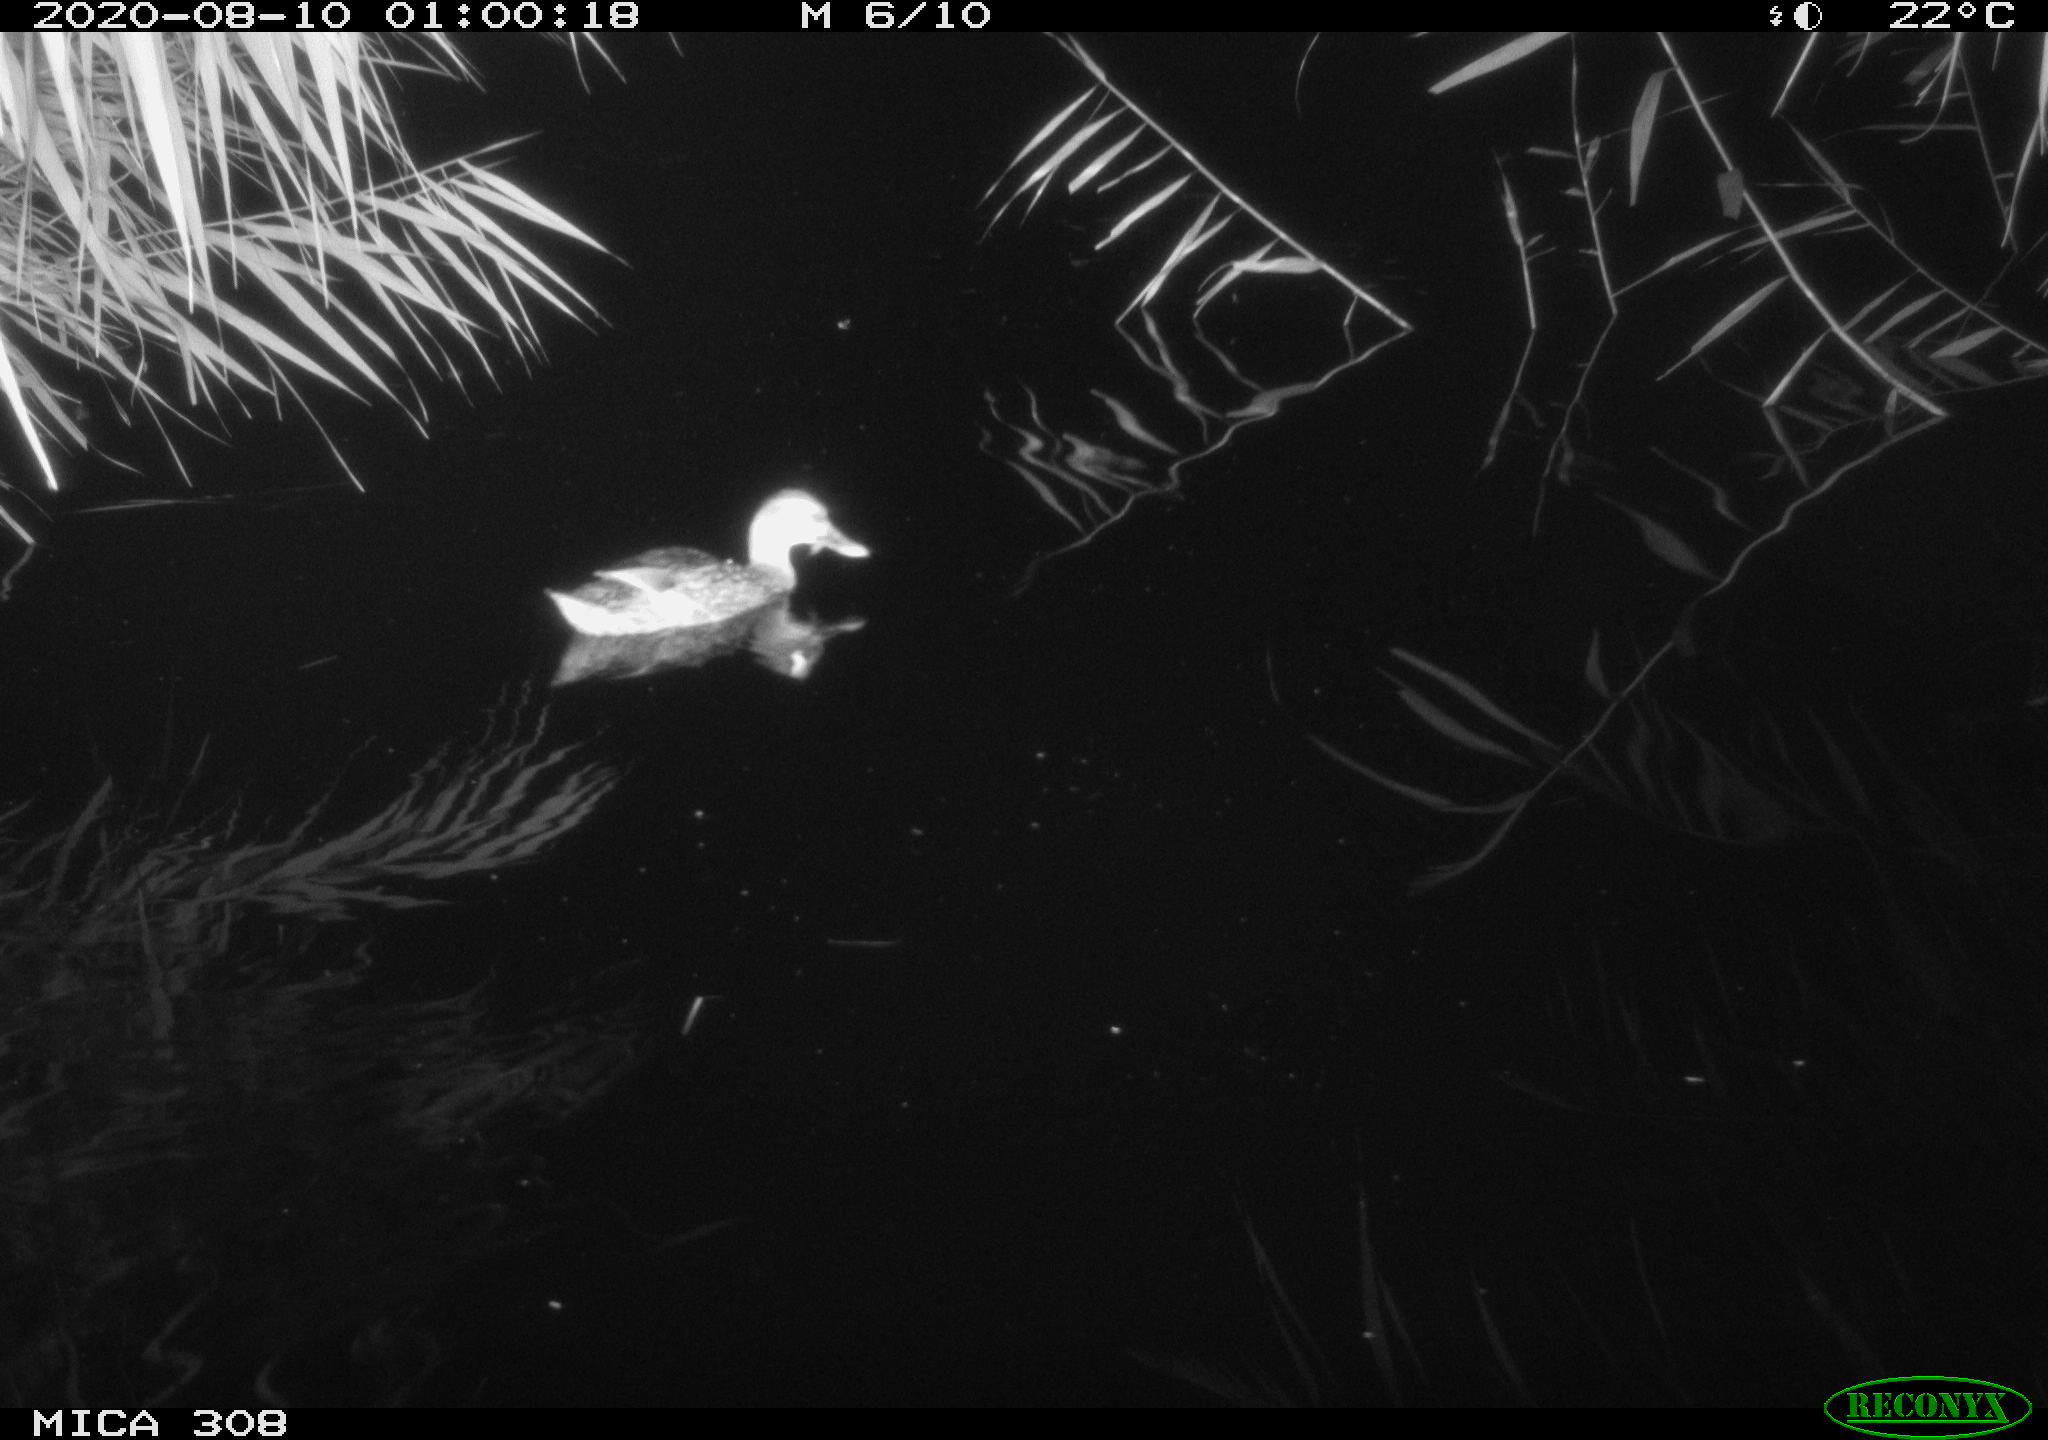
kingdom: Animalia
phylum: Chordata
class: Aves
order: Anseriformes
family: Anatidae
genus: Anas
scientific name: Anas platyrhynchos
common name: Mallard
